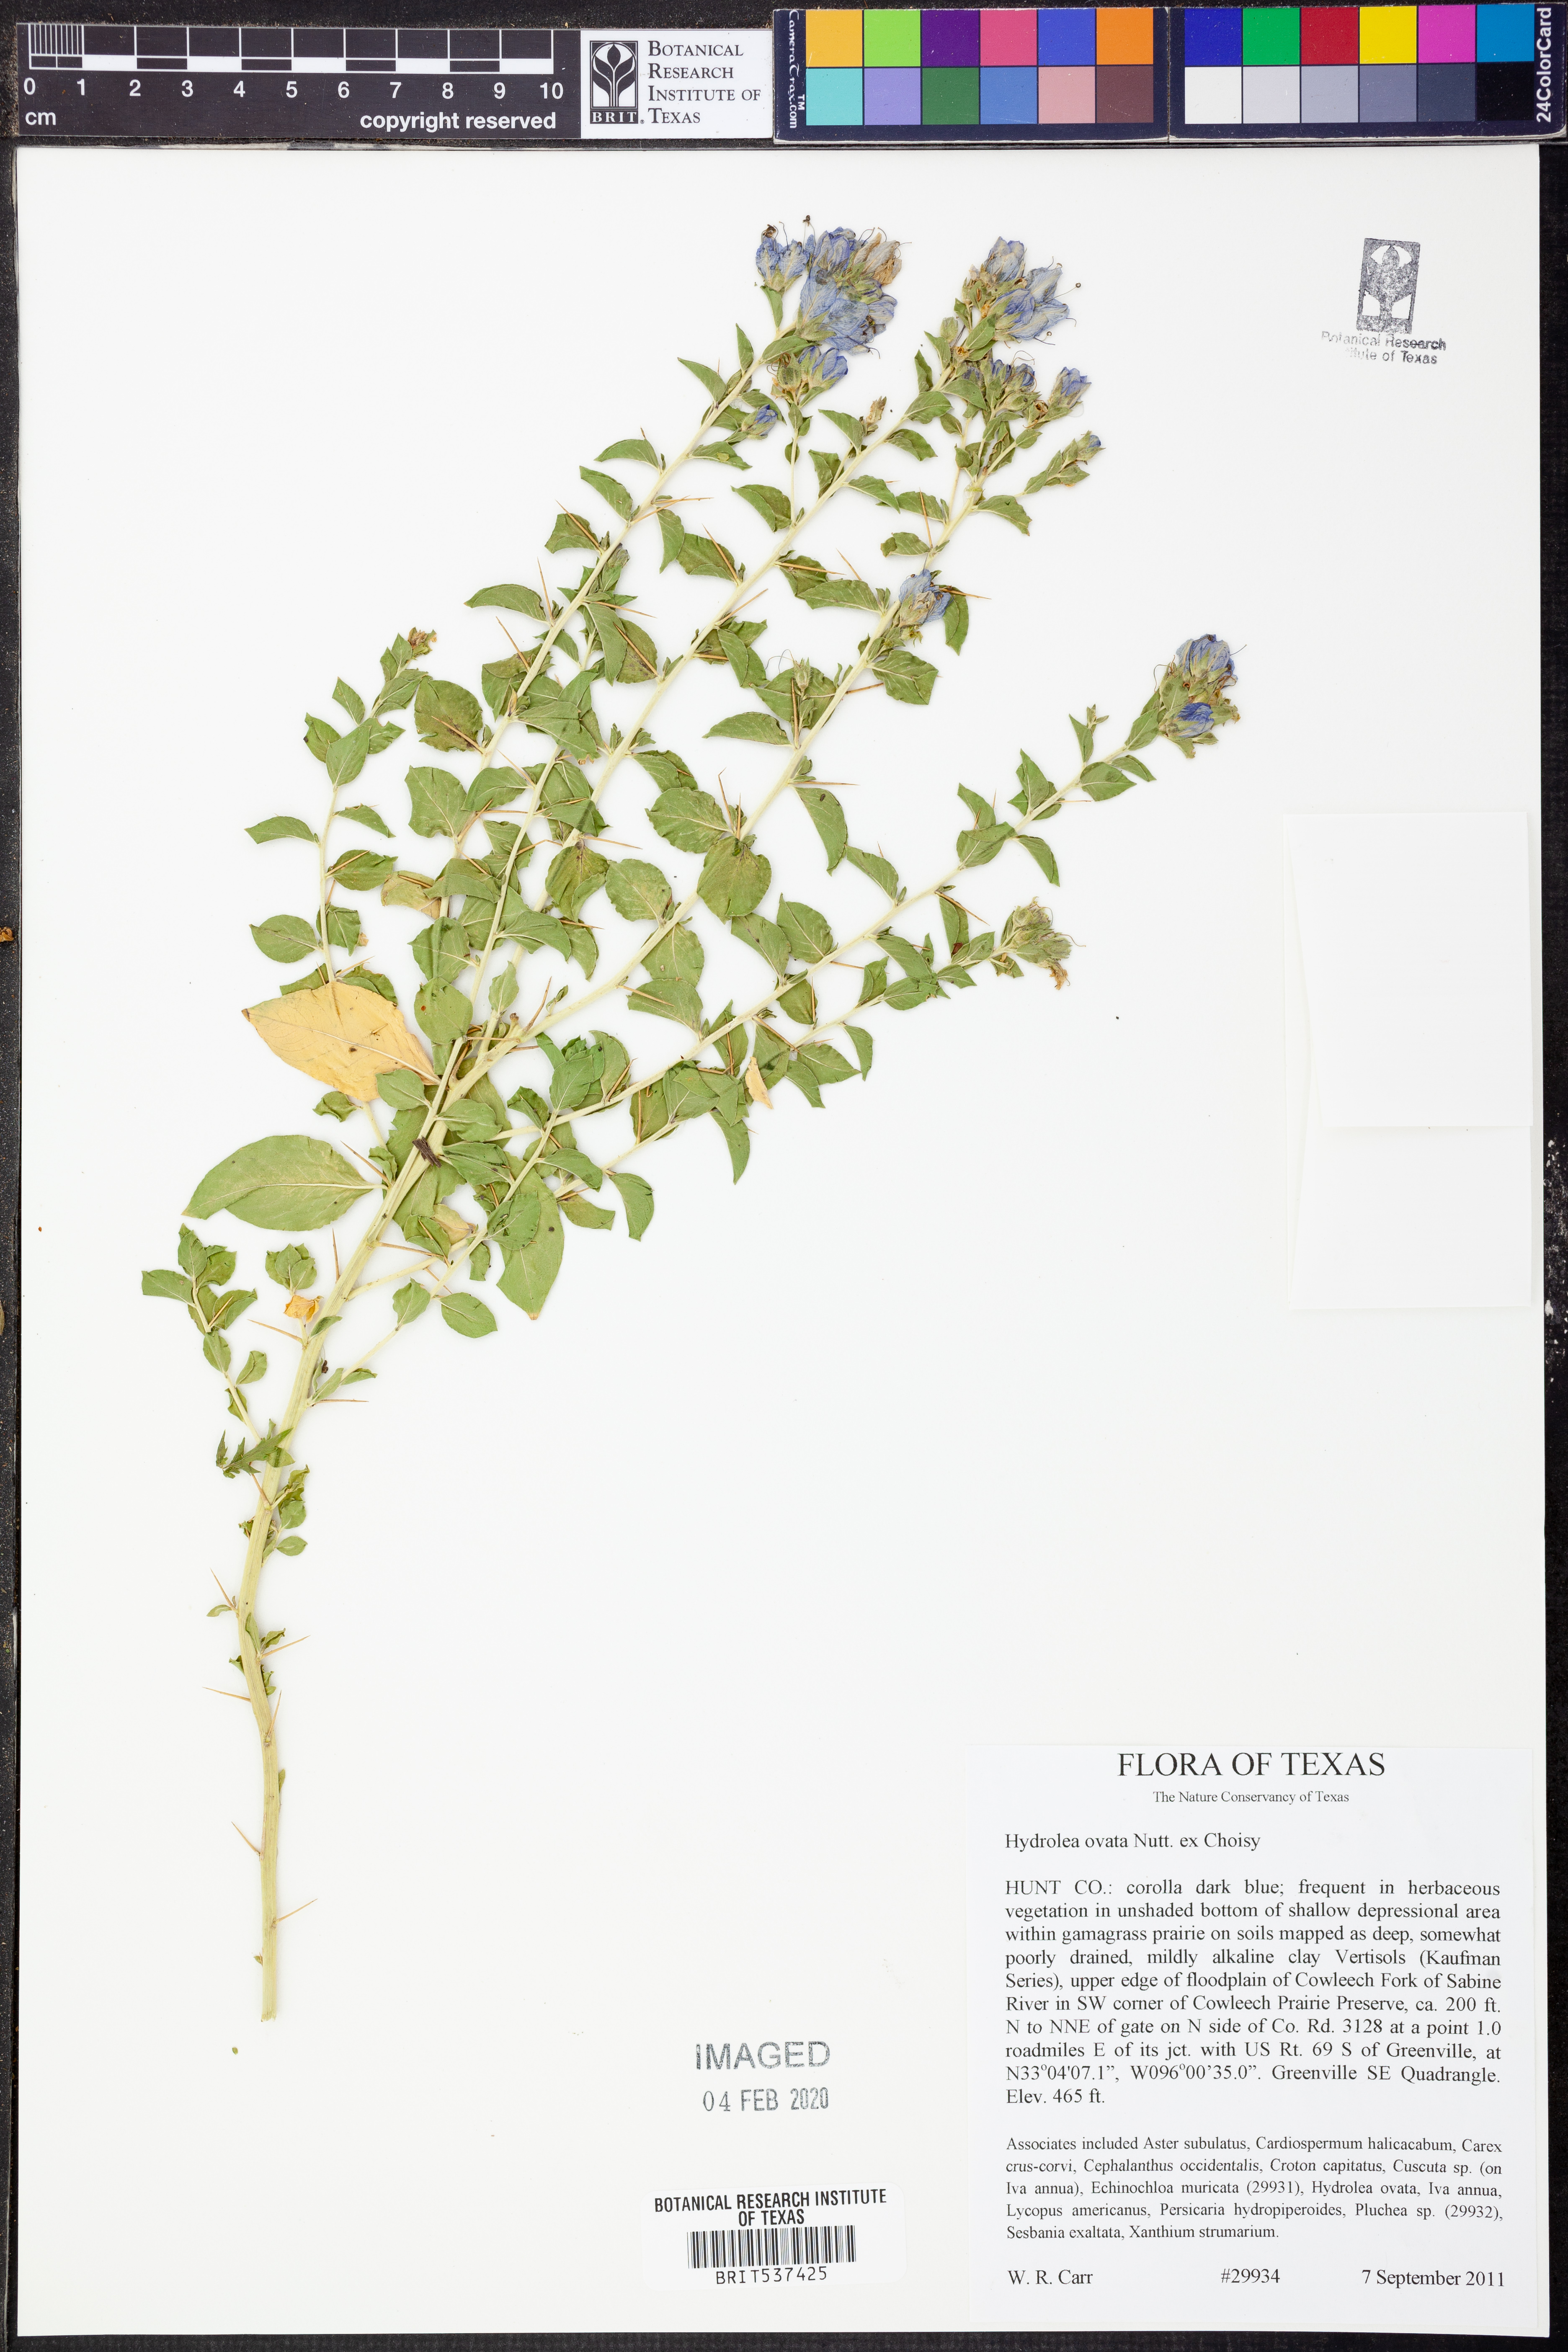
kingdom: Plantae
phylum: Tracheophyta
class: Magnoliopsida
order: Solanales
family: Hydroleaceae
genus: Hydrolea
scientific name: Hydrolea ovata
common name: Ovate false fiddleleaf
